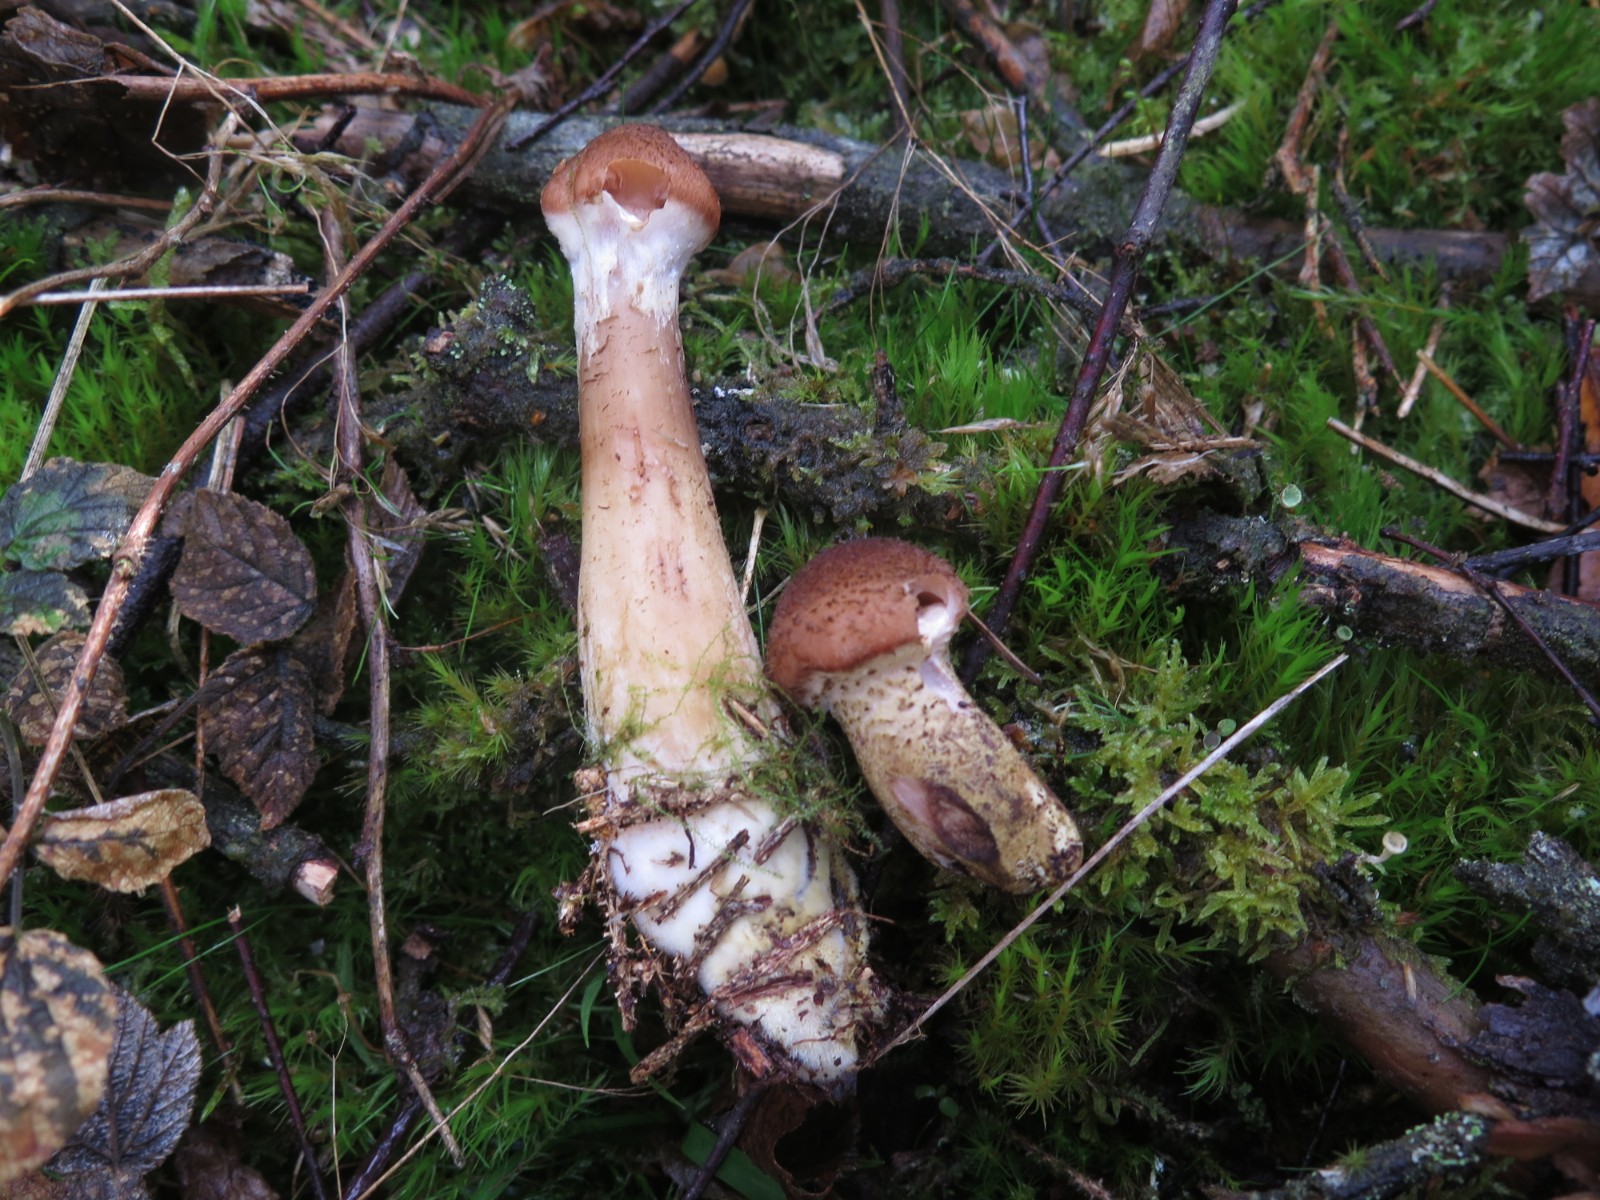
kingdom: Fungi
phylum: Basidiomycota
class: Agaricomycetes
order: Agaricales
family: Physalacriaceae
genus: Armillaria
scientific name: Armillaria lutea
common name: køllestokket honningsvamp
